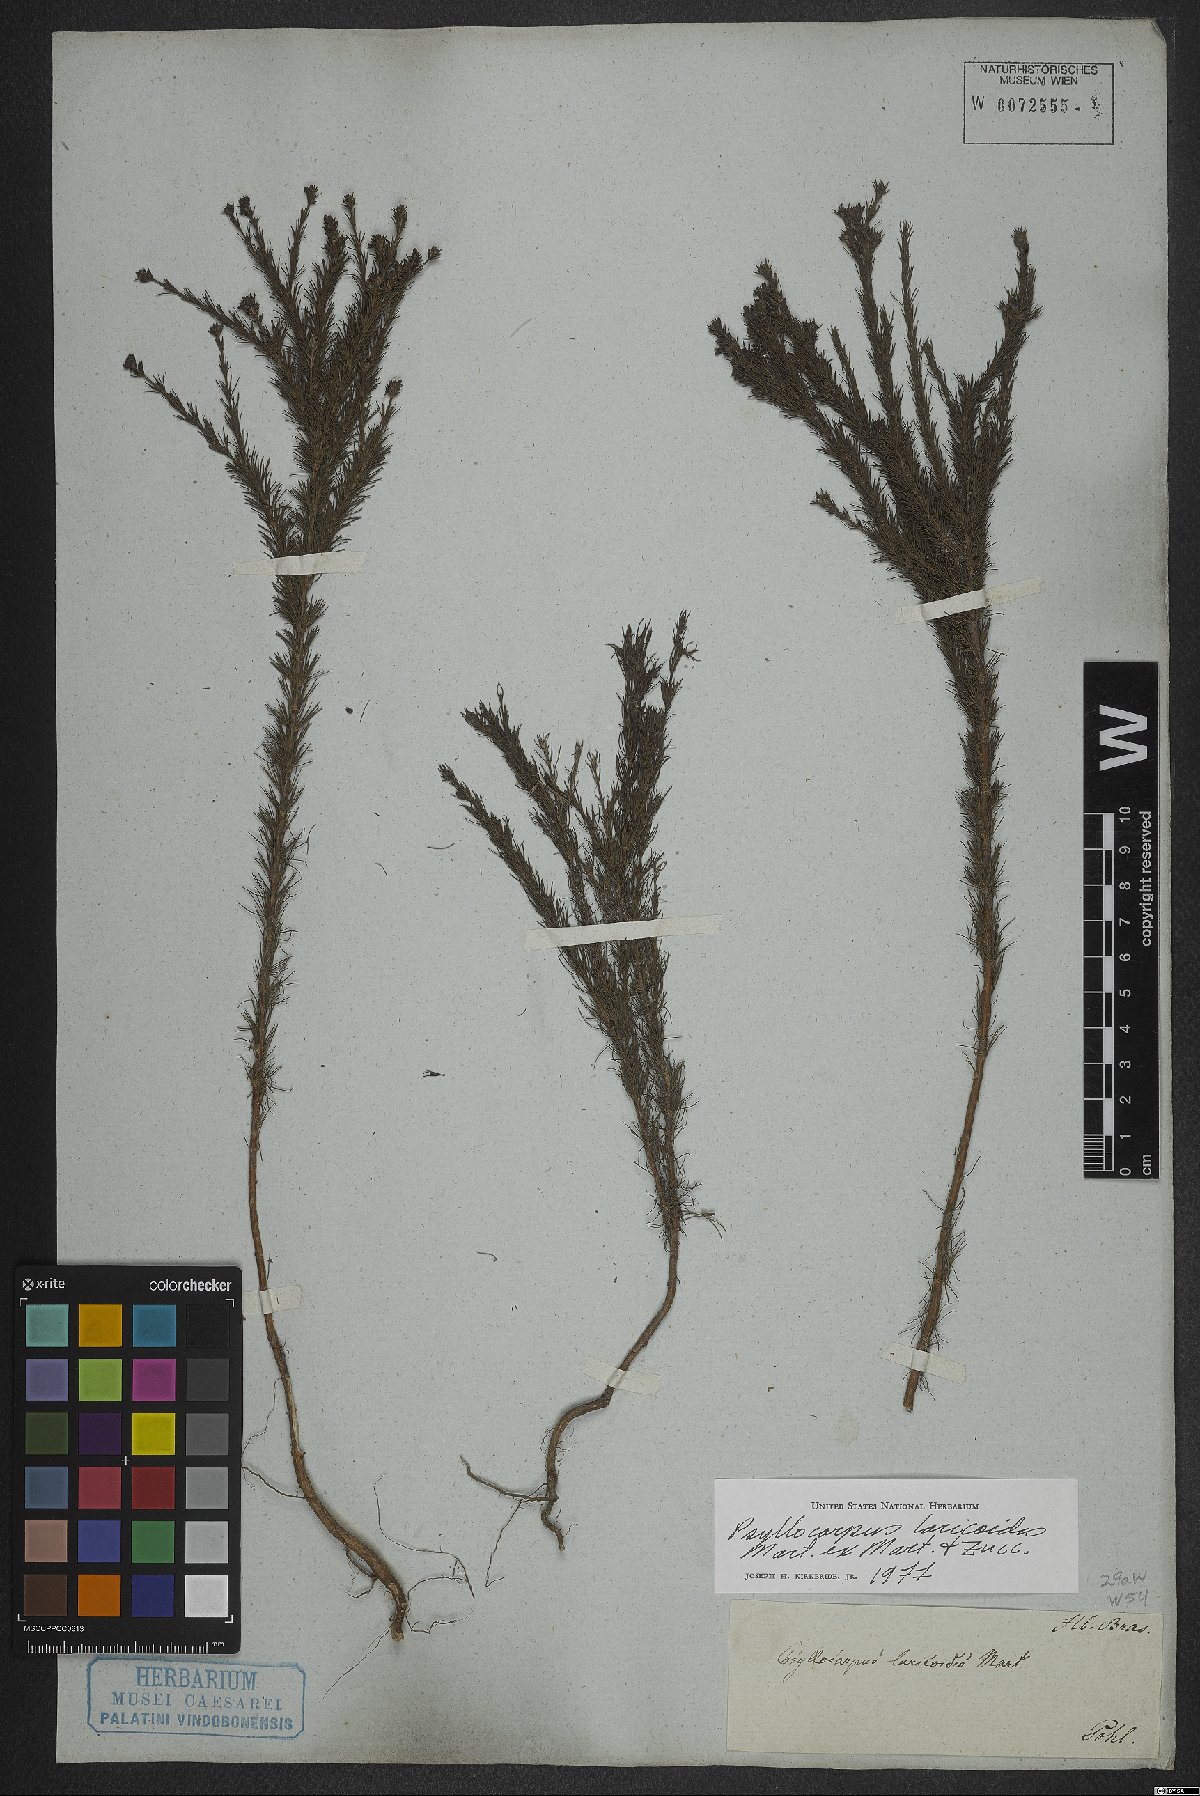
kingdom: Plantae
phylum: Tracheophyta
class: Magnoliopsida
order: Gentianales
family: Rubiaceae
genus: Psyllocarpus
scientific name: Psyllocarpus laricoides
